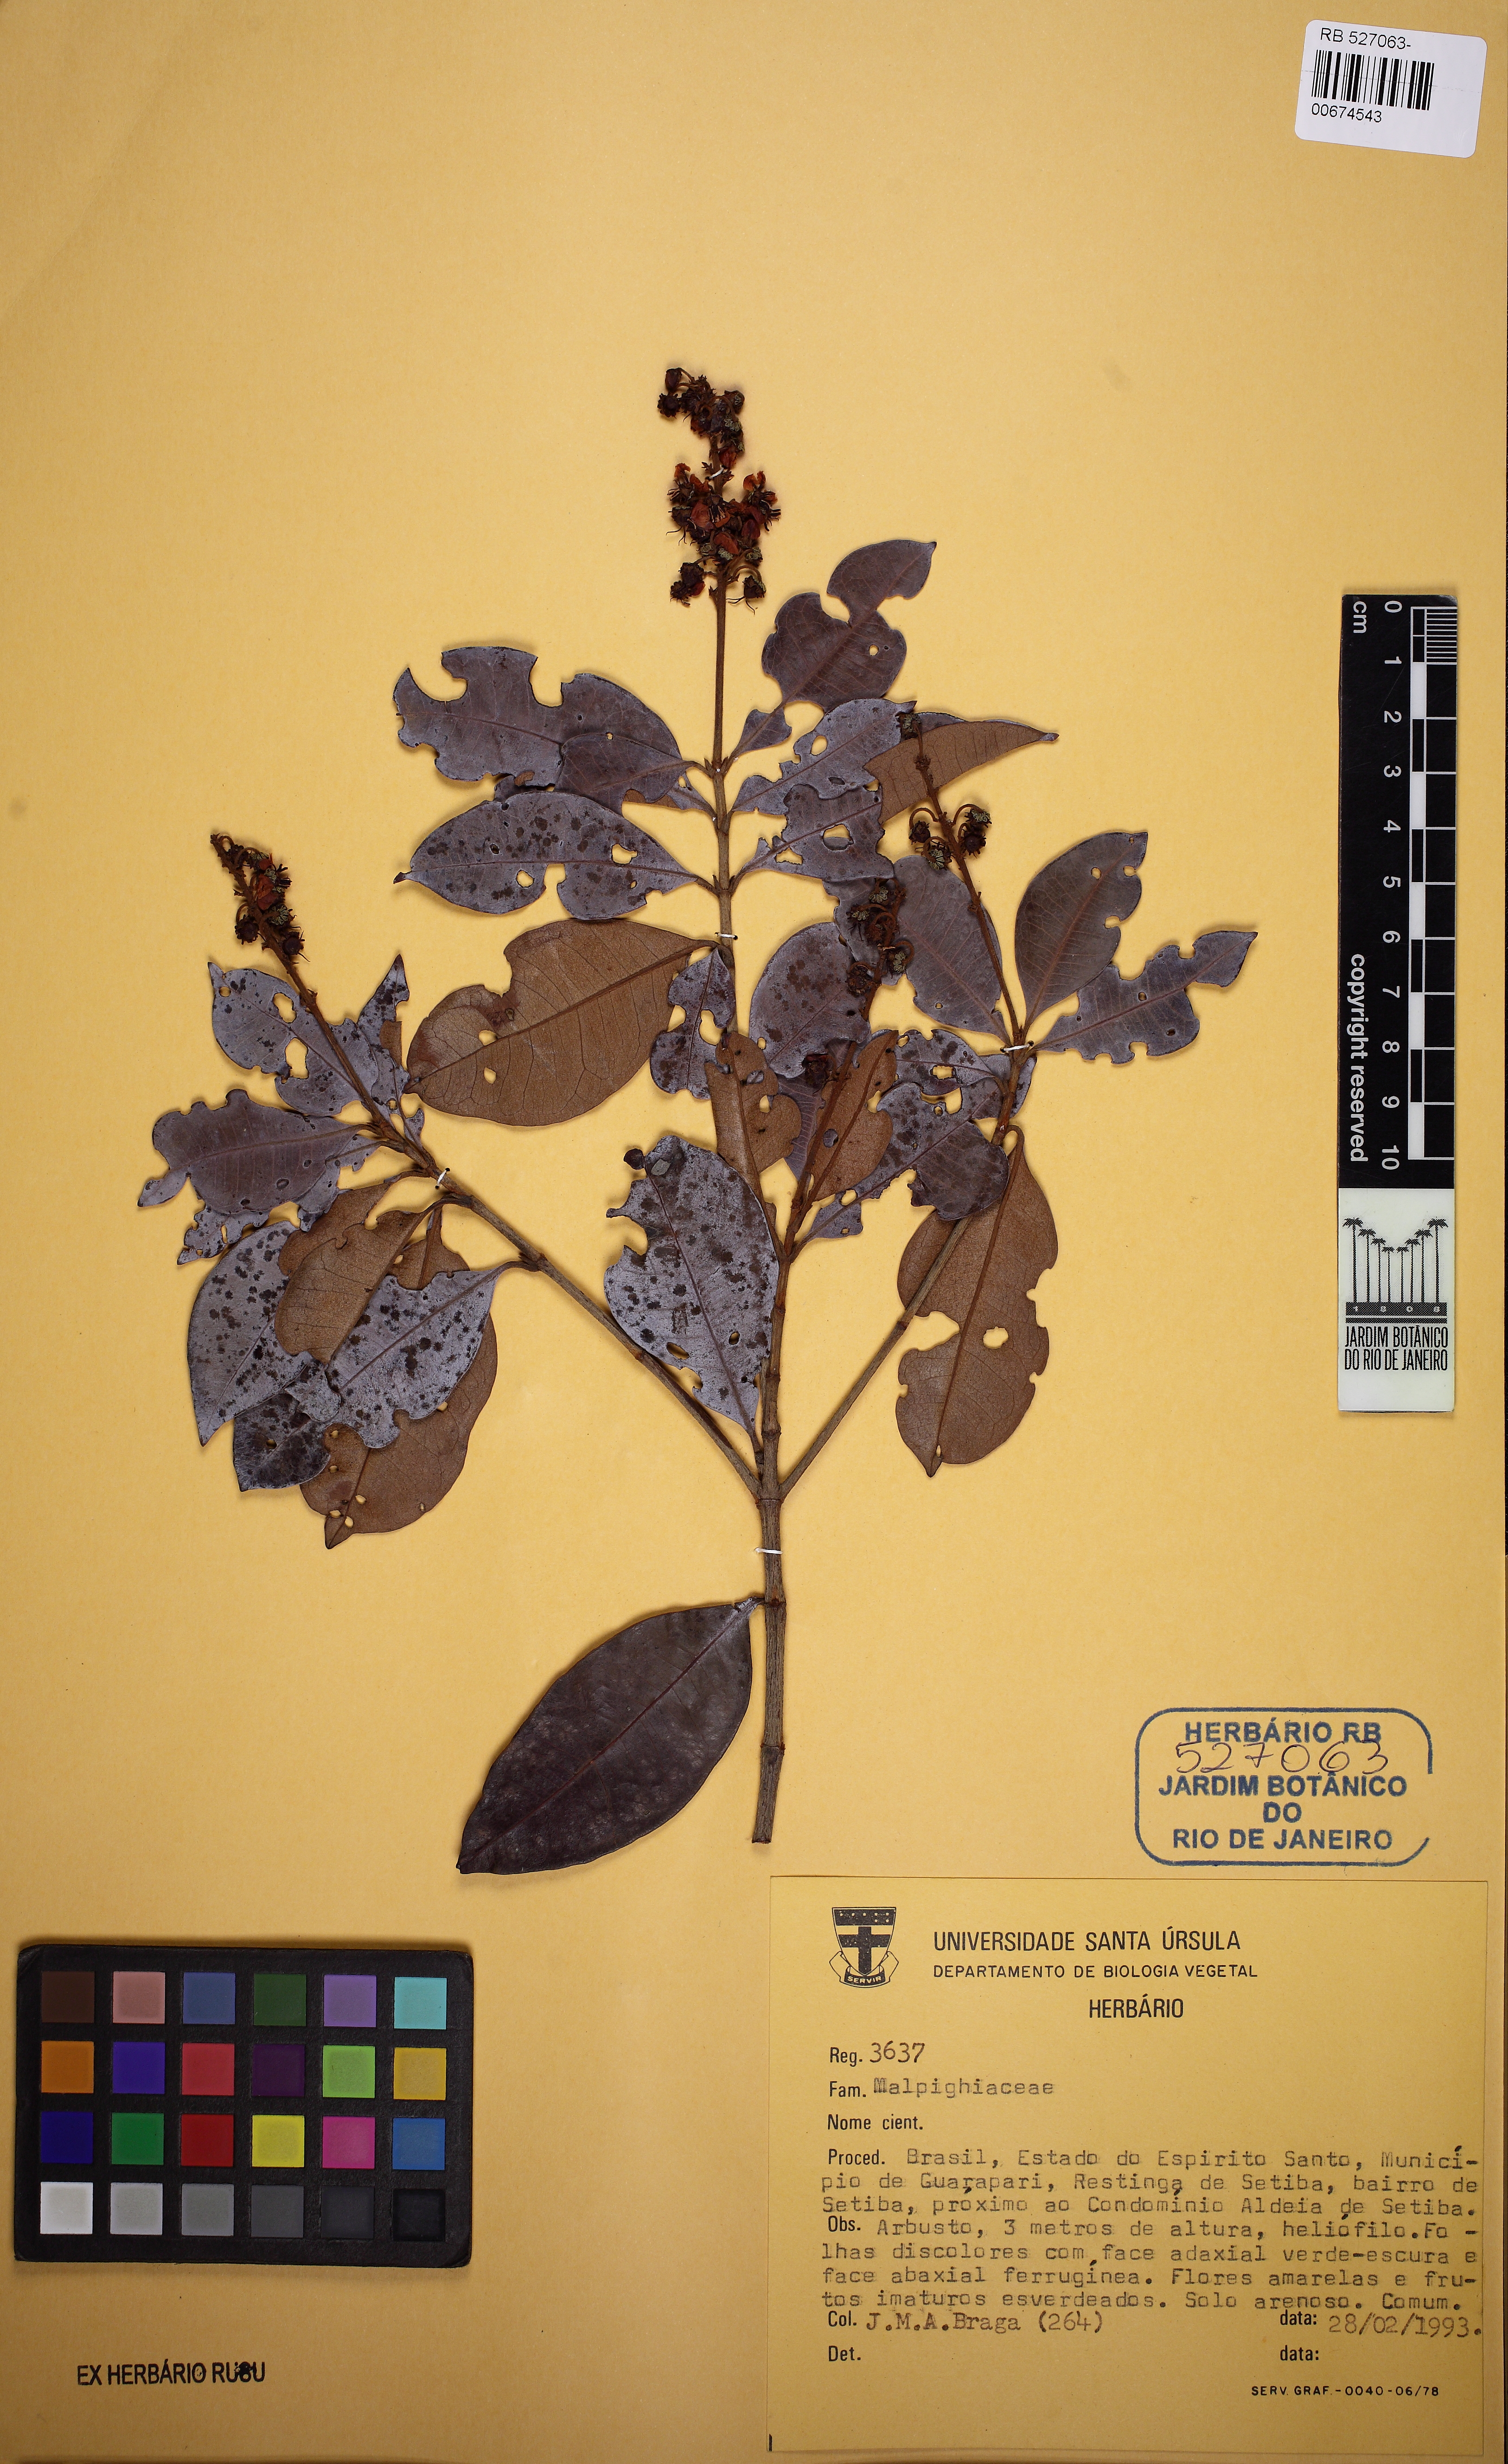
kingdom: Plantae
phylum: Tracheophyta
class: Magnoliopsida
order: Malpighiales
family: Malpighiaceae
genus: Byrsonima
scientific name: Byrsonima sericea
